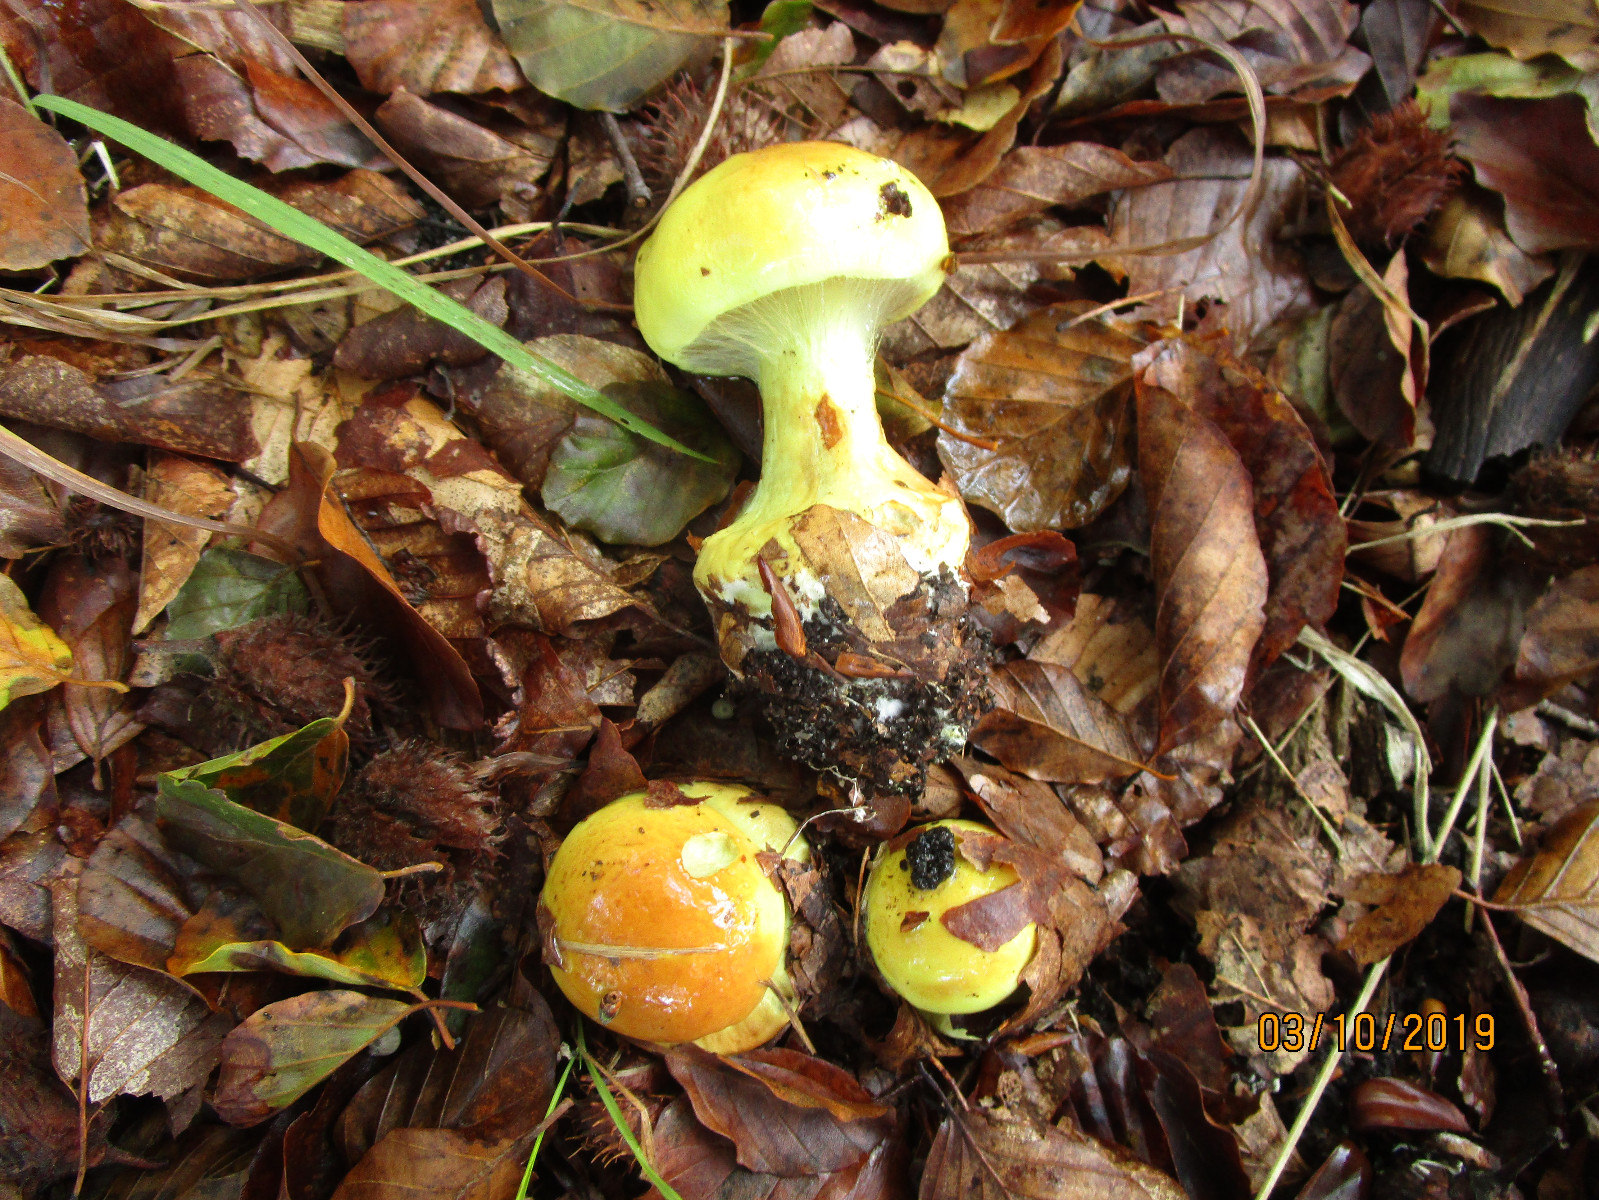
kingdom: Fungi
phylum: Basidiomycota
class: Agaricomycetes
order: Agaricales
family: Cortinariaceae
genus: Calonarius
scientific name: Calonarius elegantissimus
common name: orangegylden slørhat
